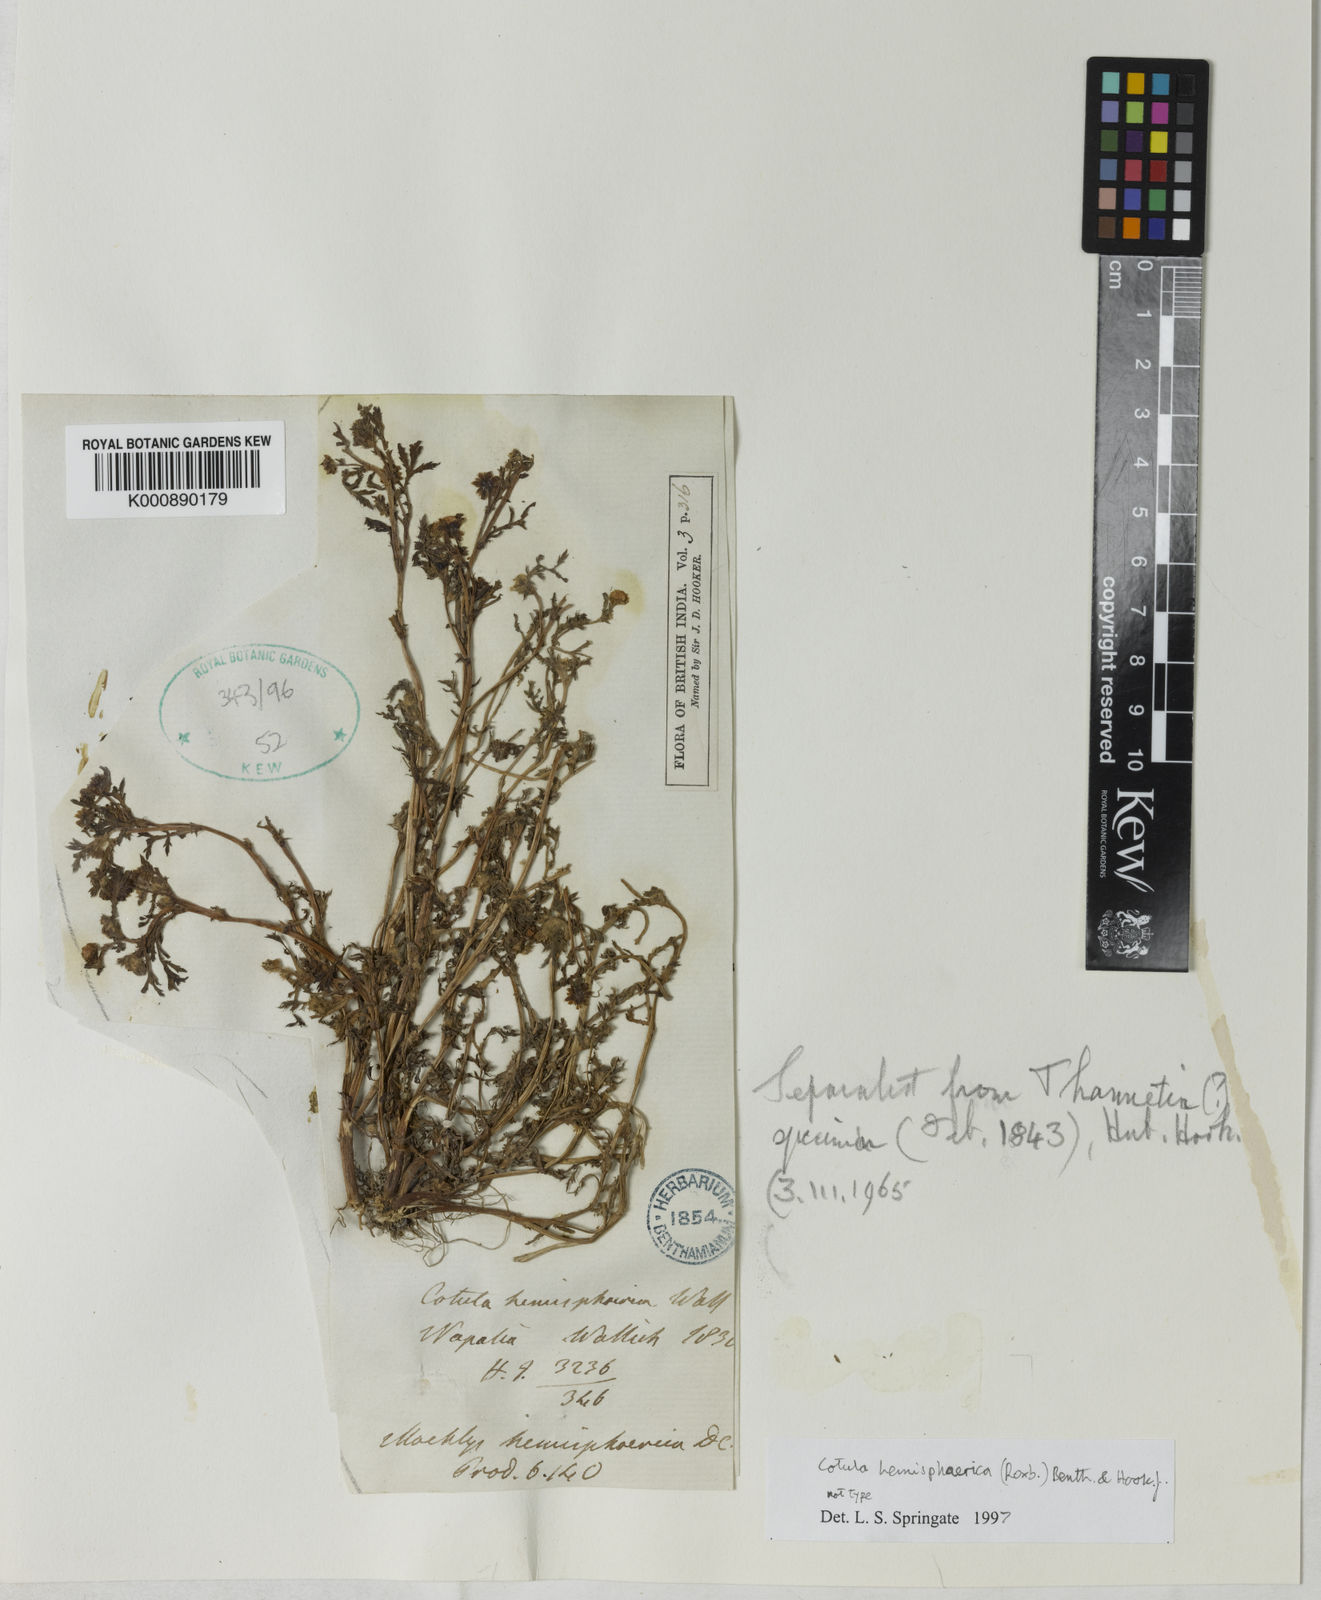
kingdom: Plantae
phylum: Tracheophyta
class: Magnoliopsida
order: Asterales
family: Asteraceae
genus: Grangea
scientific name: Grangea
